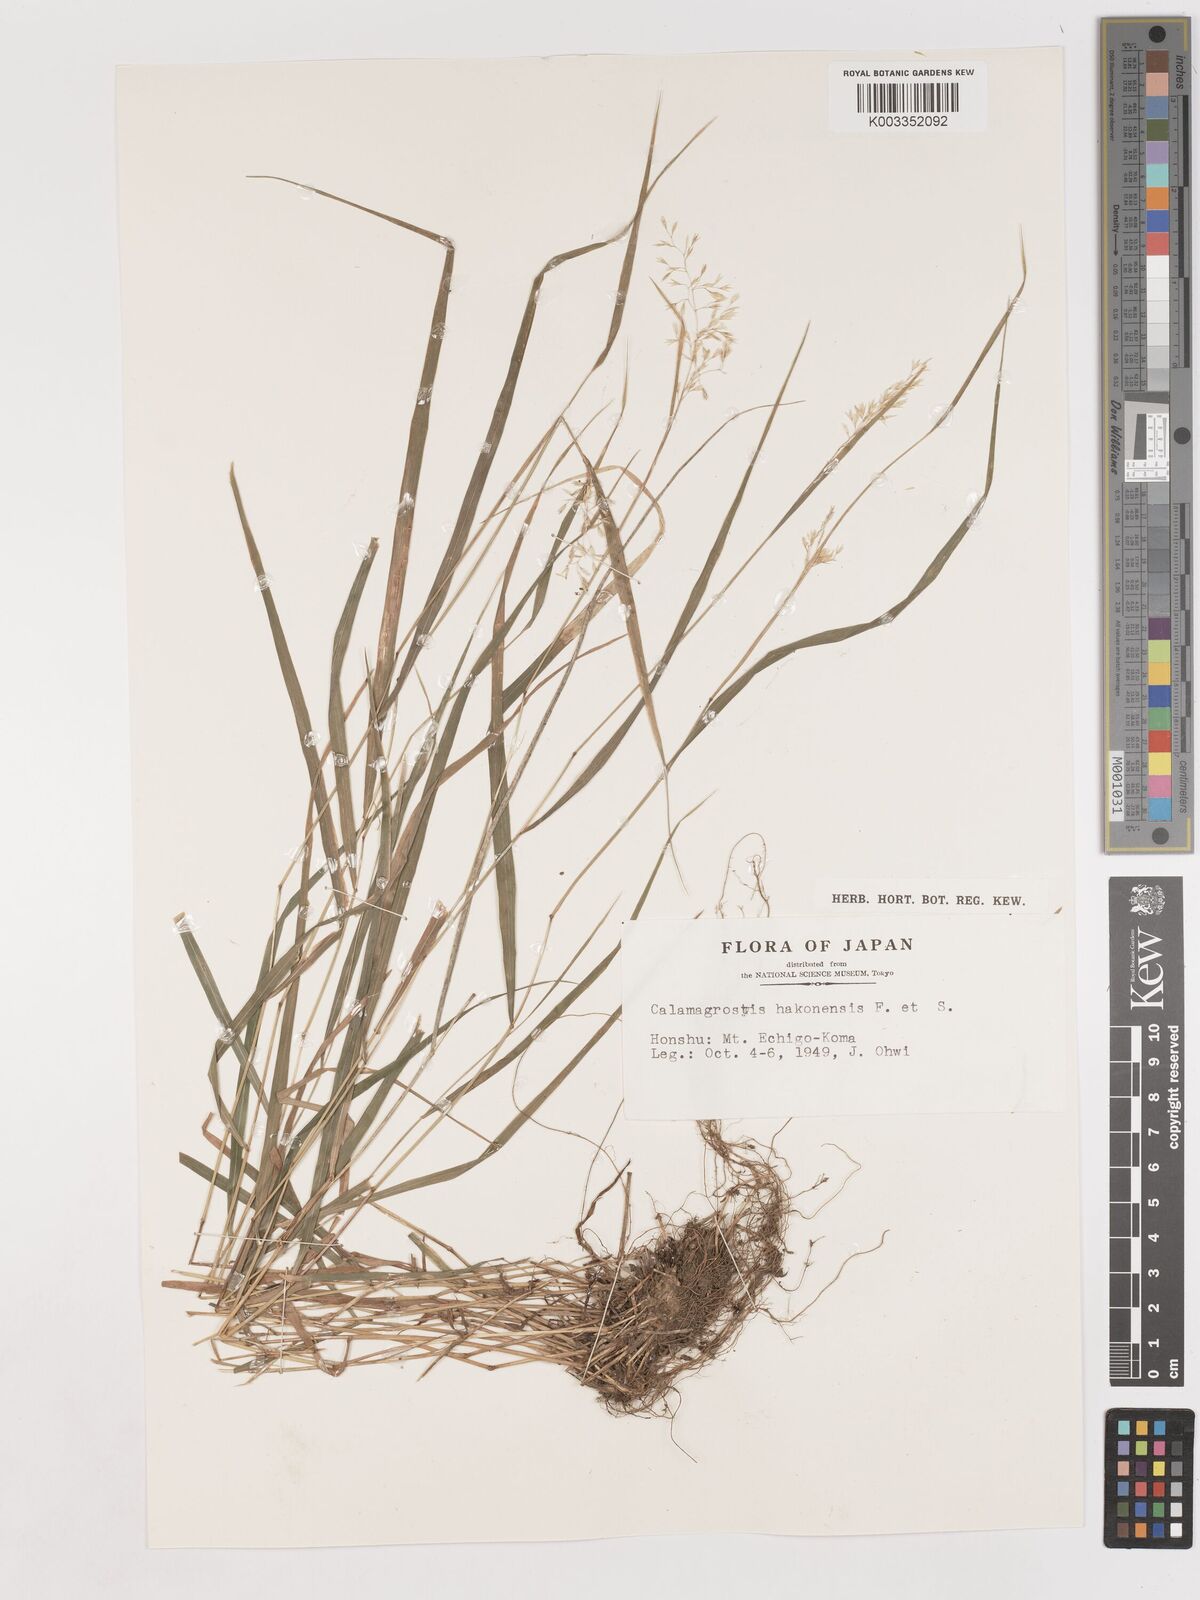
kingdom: Plantae
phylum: Tracheophyta
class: Liliopsida
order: Poales
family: Poaceae
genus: Calamagrostis
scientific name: Calamagrostis hakonensis
